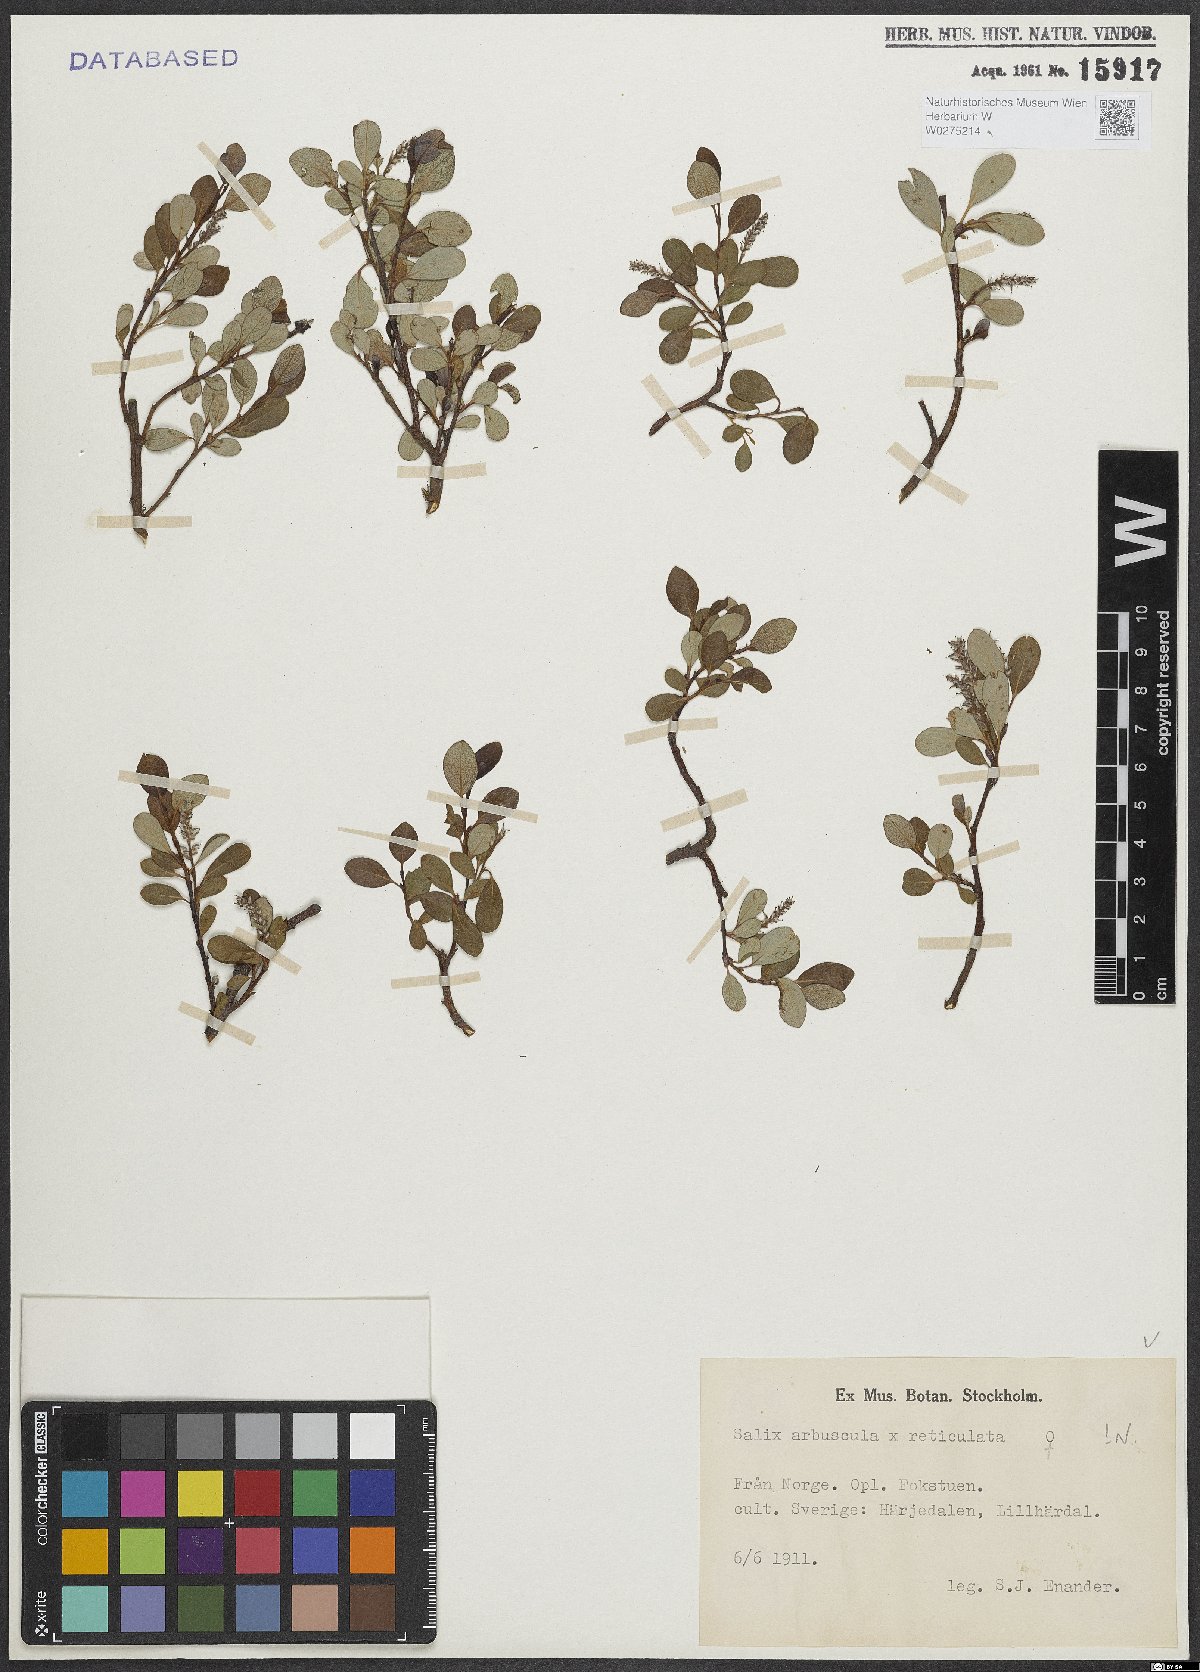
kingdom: Plantae
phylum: Tracheophyta
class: Magnoliopsida
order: Malpighiales
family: Salicaceae
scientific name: Salicaceae
